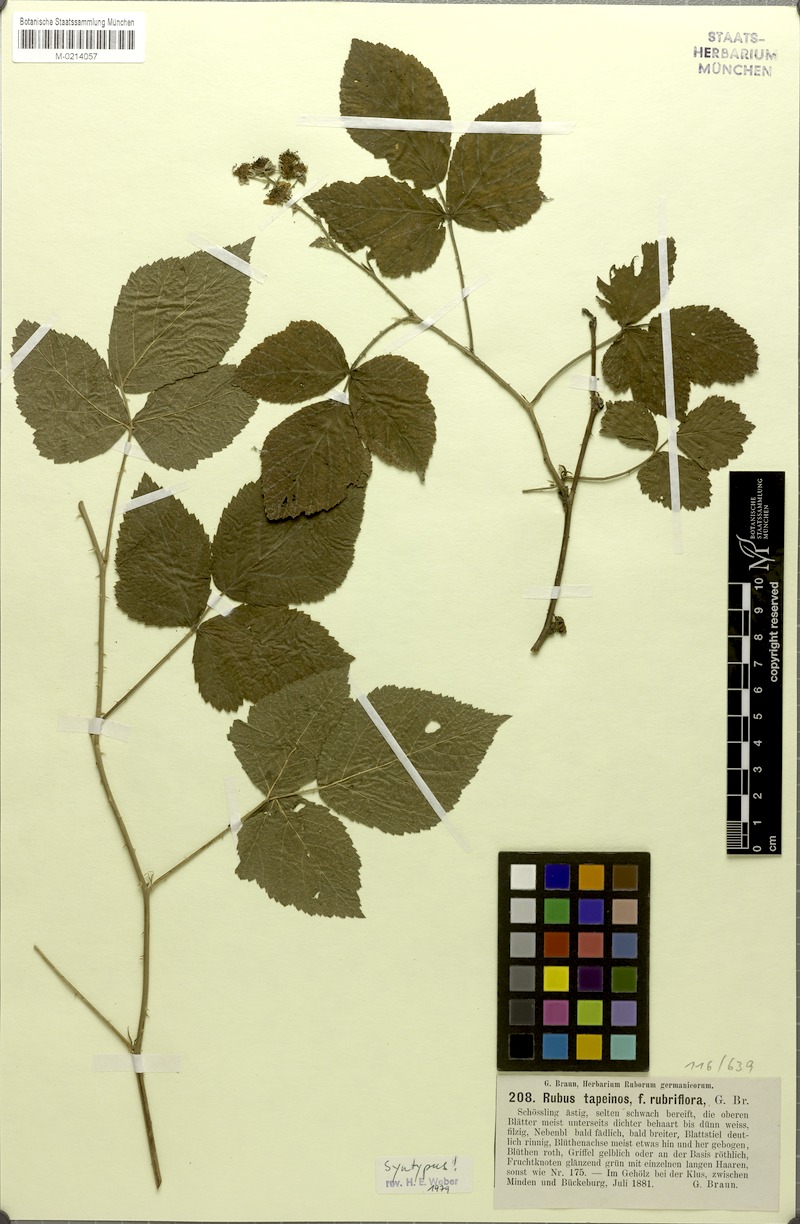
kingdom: Plantae
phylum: Tracheophyta
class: Magnoliopsida
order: Rosales
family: Rosaceae
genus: Rubus
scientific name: Rubus
